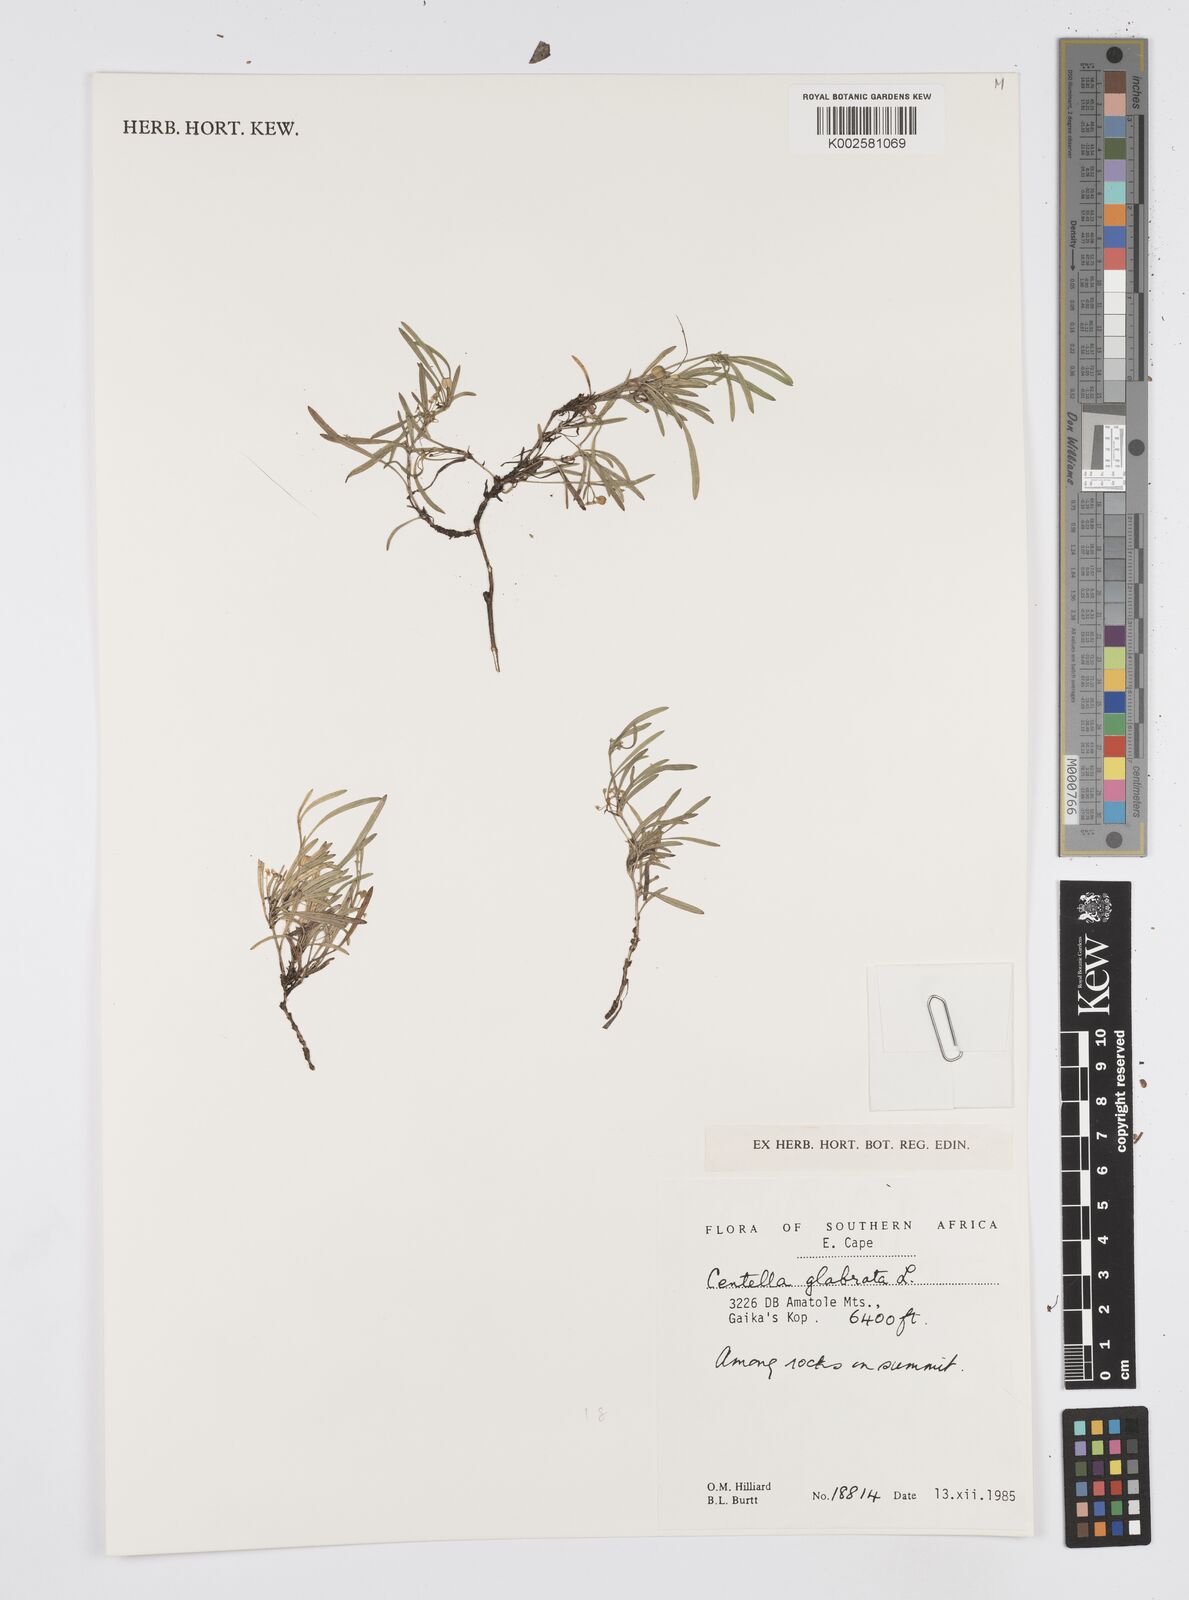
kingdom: Plantae
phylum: Tracheophyta
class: Magnoliopsida
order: Apiales
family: Apiaceae
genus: Centella
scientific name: Centella glabrata
